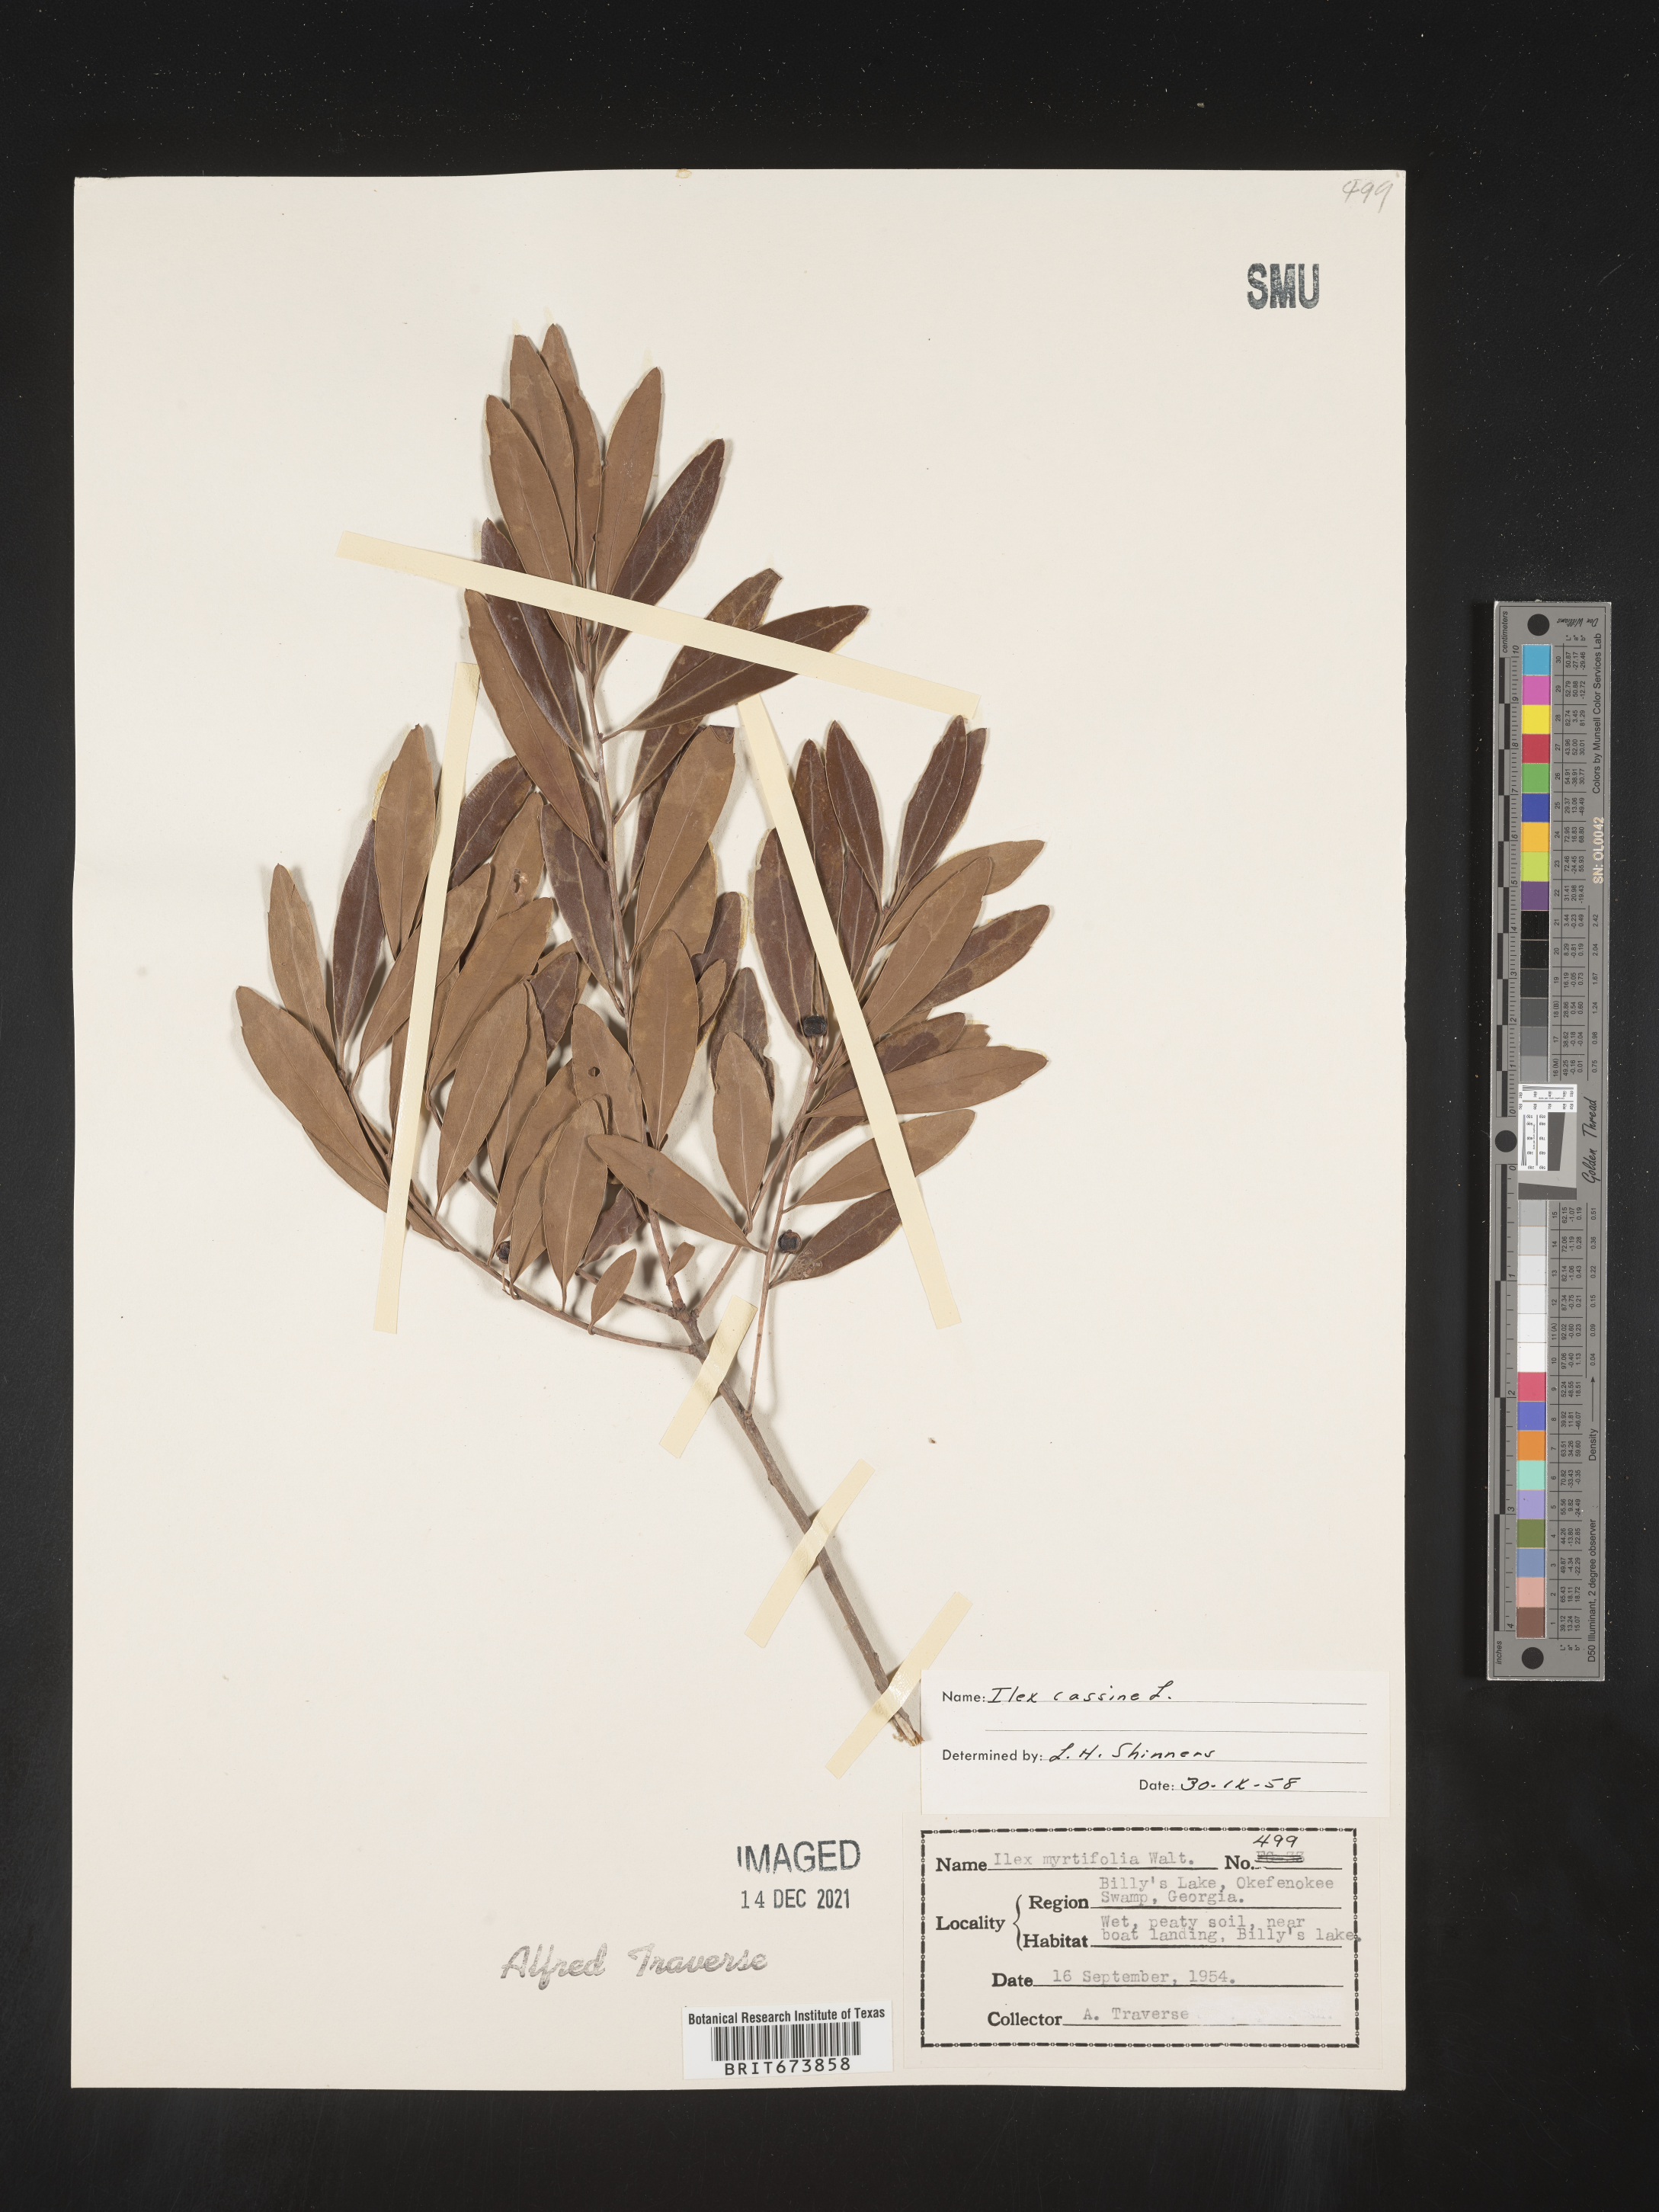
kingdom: Plantae
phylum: Tracheophyta
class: Magnoliopsida
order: Aquifoliales
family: Aquifoliaceae
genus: Ilex
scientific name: Ilex myrtifolia
